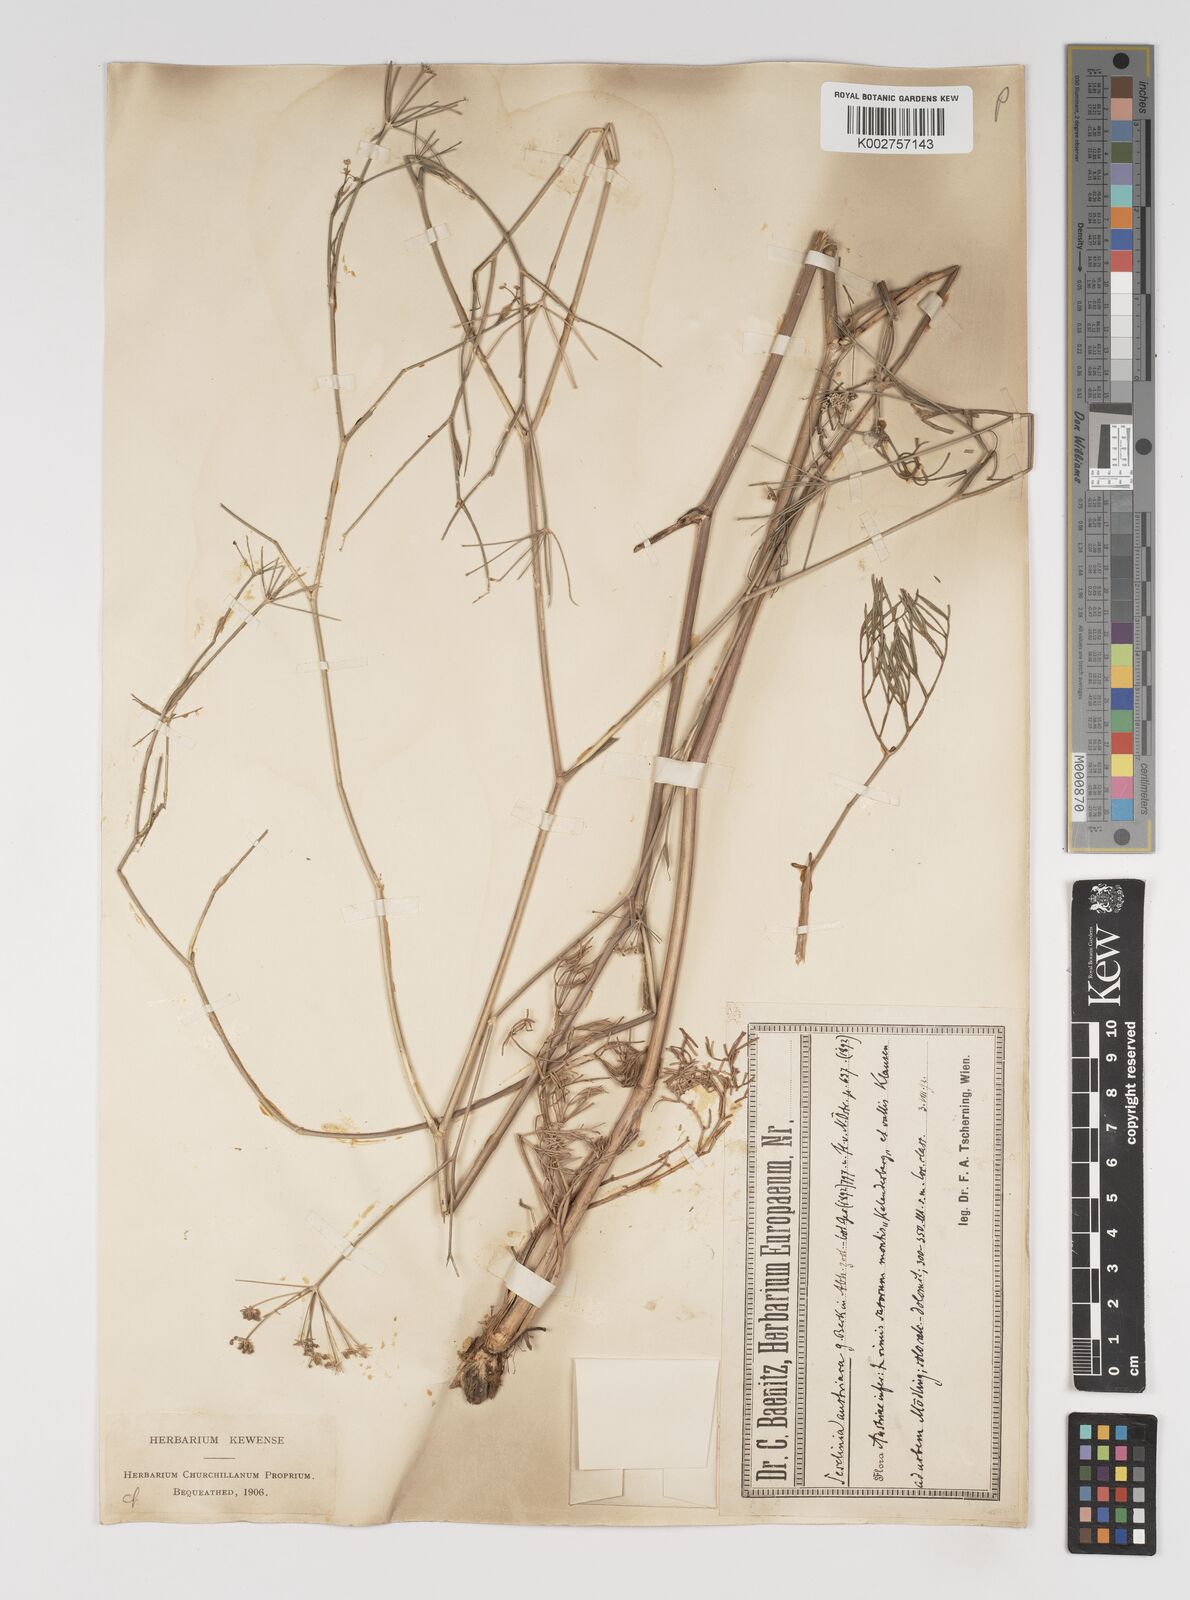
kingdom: Plantae
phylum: Tracheophyta
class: Magnoliopsida
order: Apiales
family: Apiaceae
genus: Seseli
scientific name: Seseli longifolium
